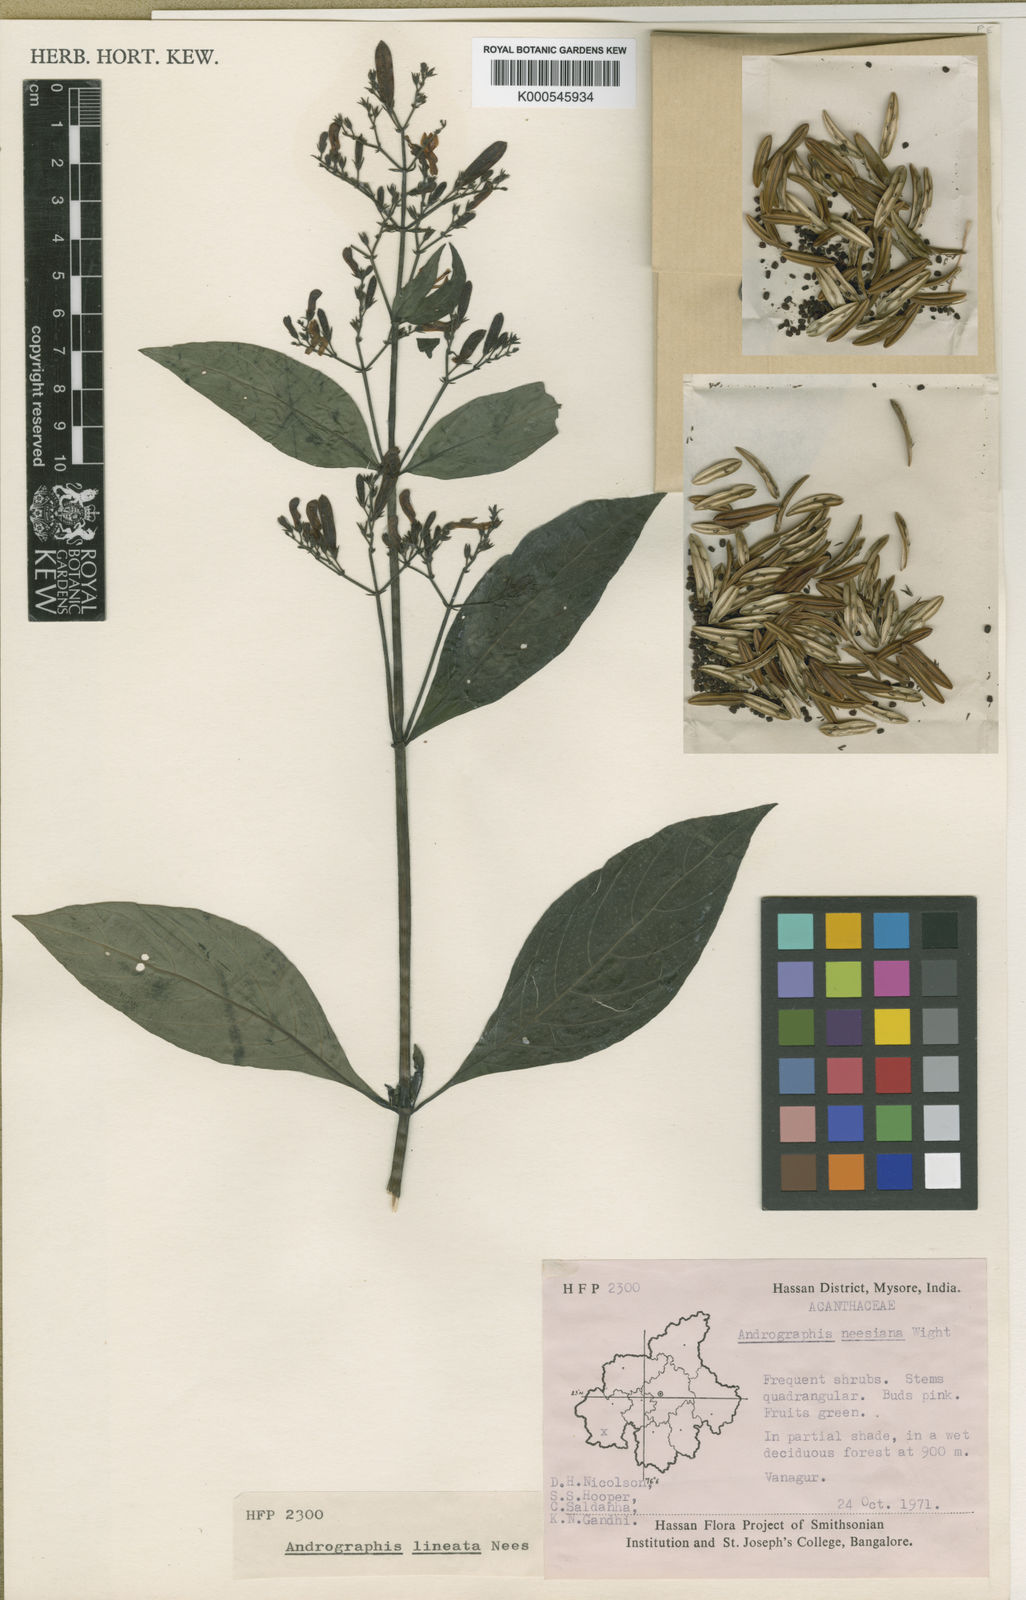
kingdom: Plantae
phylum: Tracheophyta
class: Magnoliopsida
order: Lamiales
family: Acanthaceae
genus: Andrographis
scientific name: Andrographis lineata
